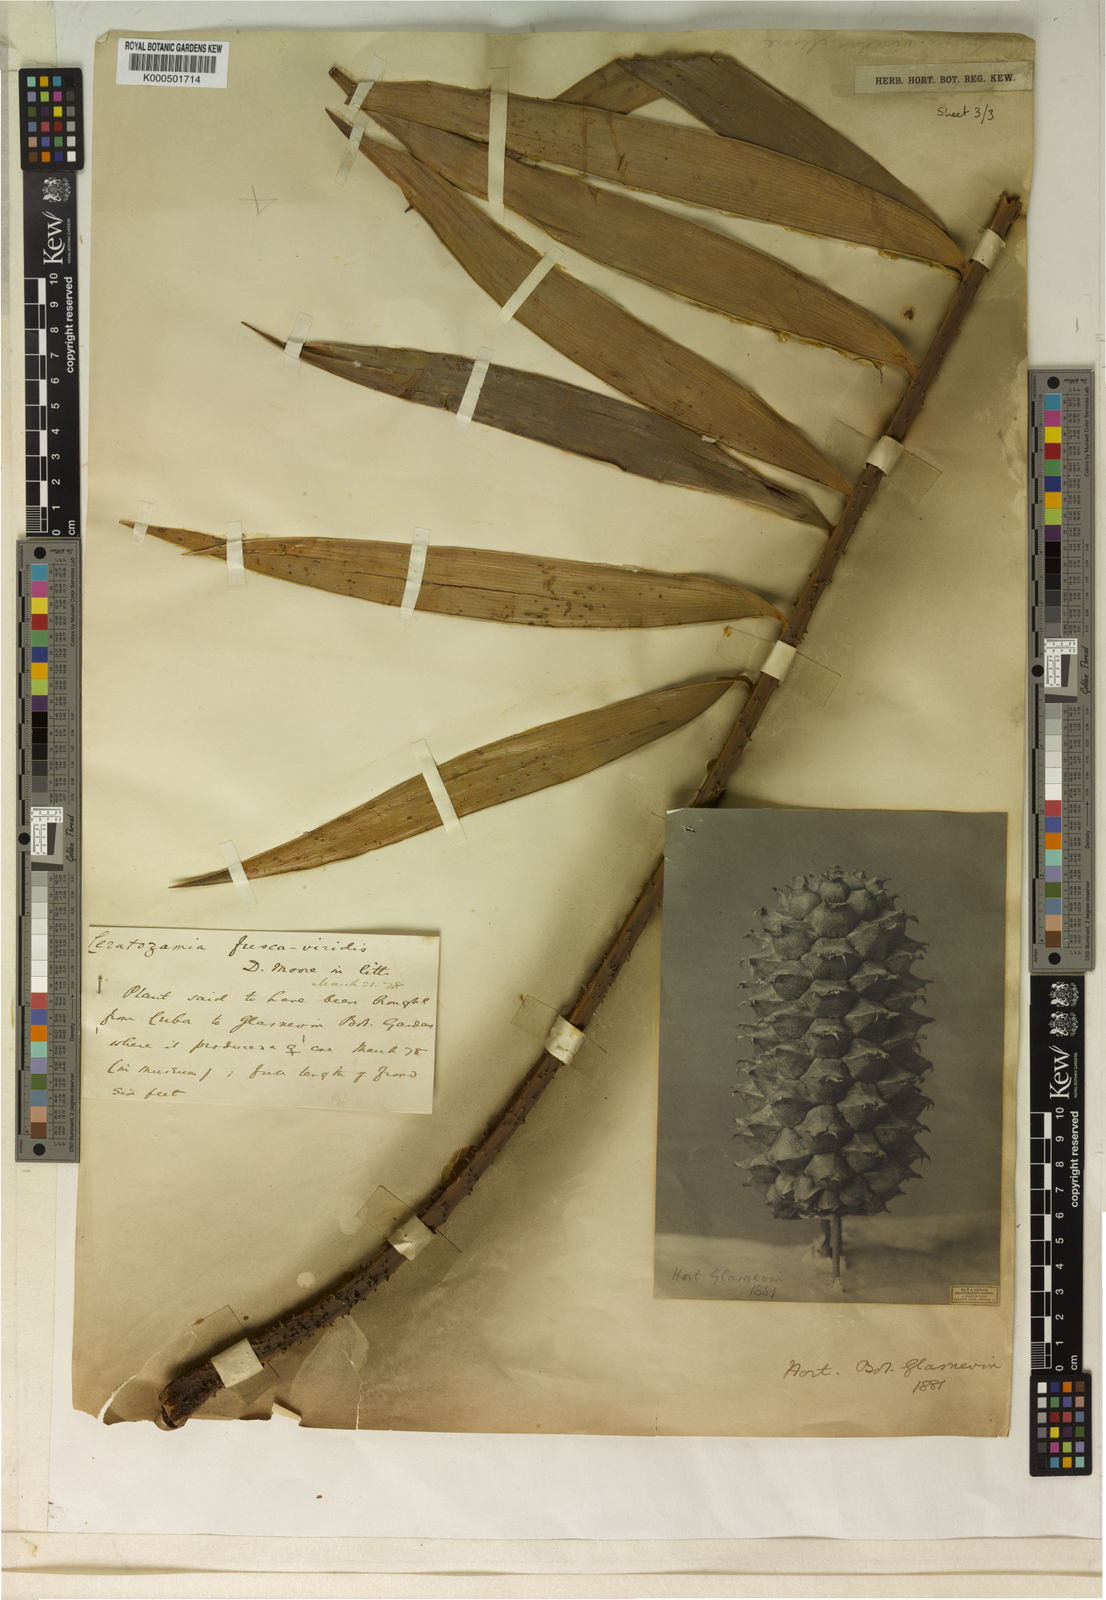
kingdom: Plantae
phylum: Tracheophyta
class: Cycadopsida
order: Cycadales
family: Zamiaceae
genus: Ceratozamia
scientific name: Ceratozamia
